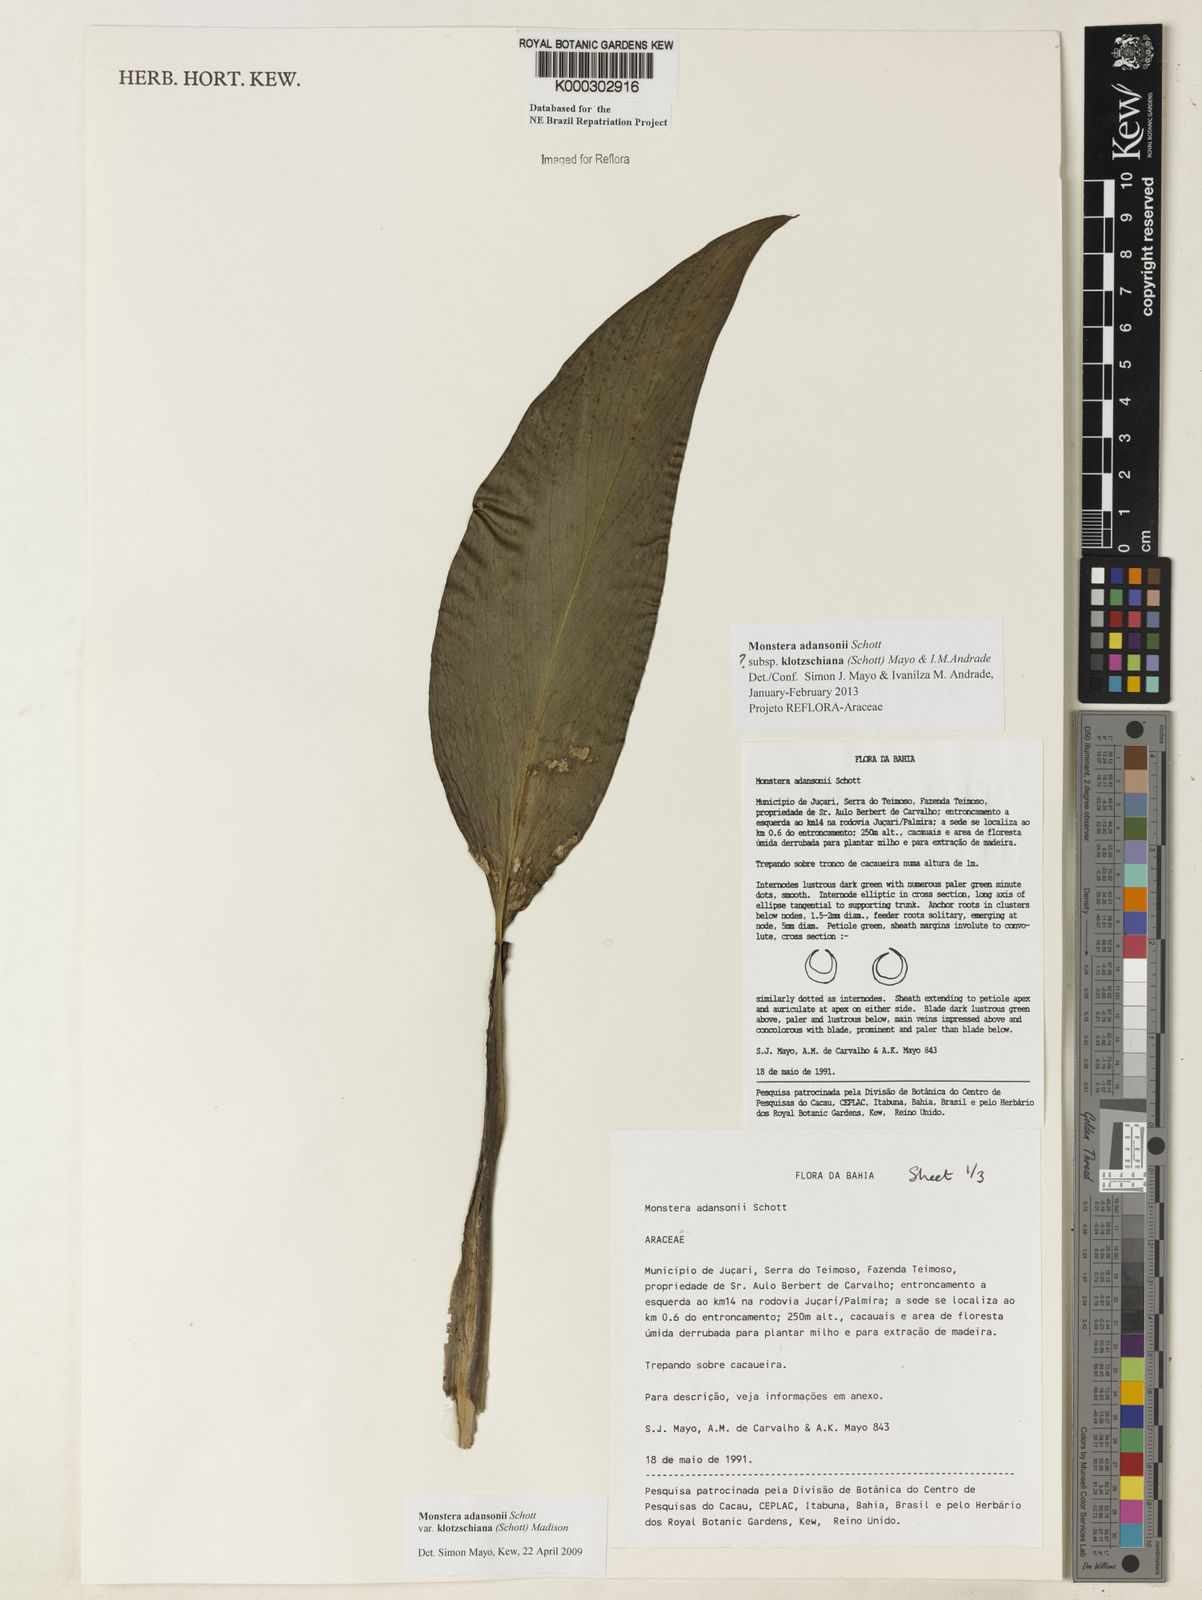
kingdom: Plantae
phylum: Tracheophyta
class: Liliopsida
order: Alismatales
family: Araceae
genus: Monstera
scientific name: Monstera adansonii
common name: Tarovine
